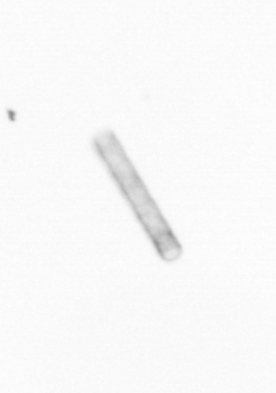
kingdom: Chromista
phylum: Ochrophyta
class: Bacillariophyceae
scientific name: Bacillariophyceae
